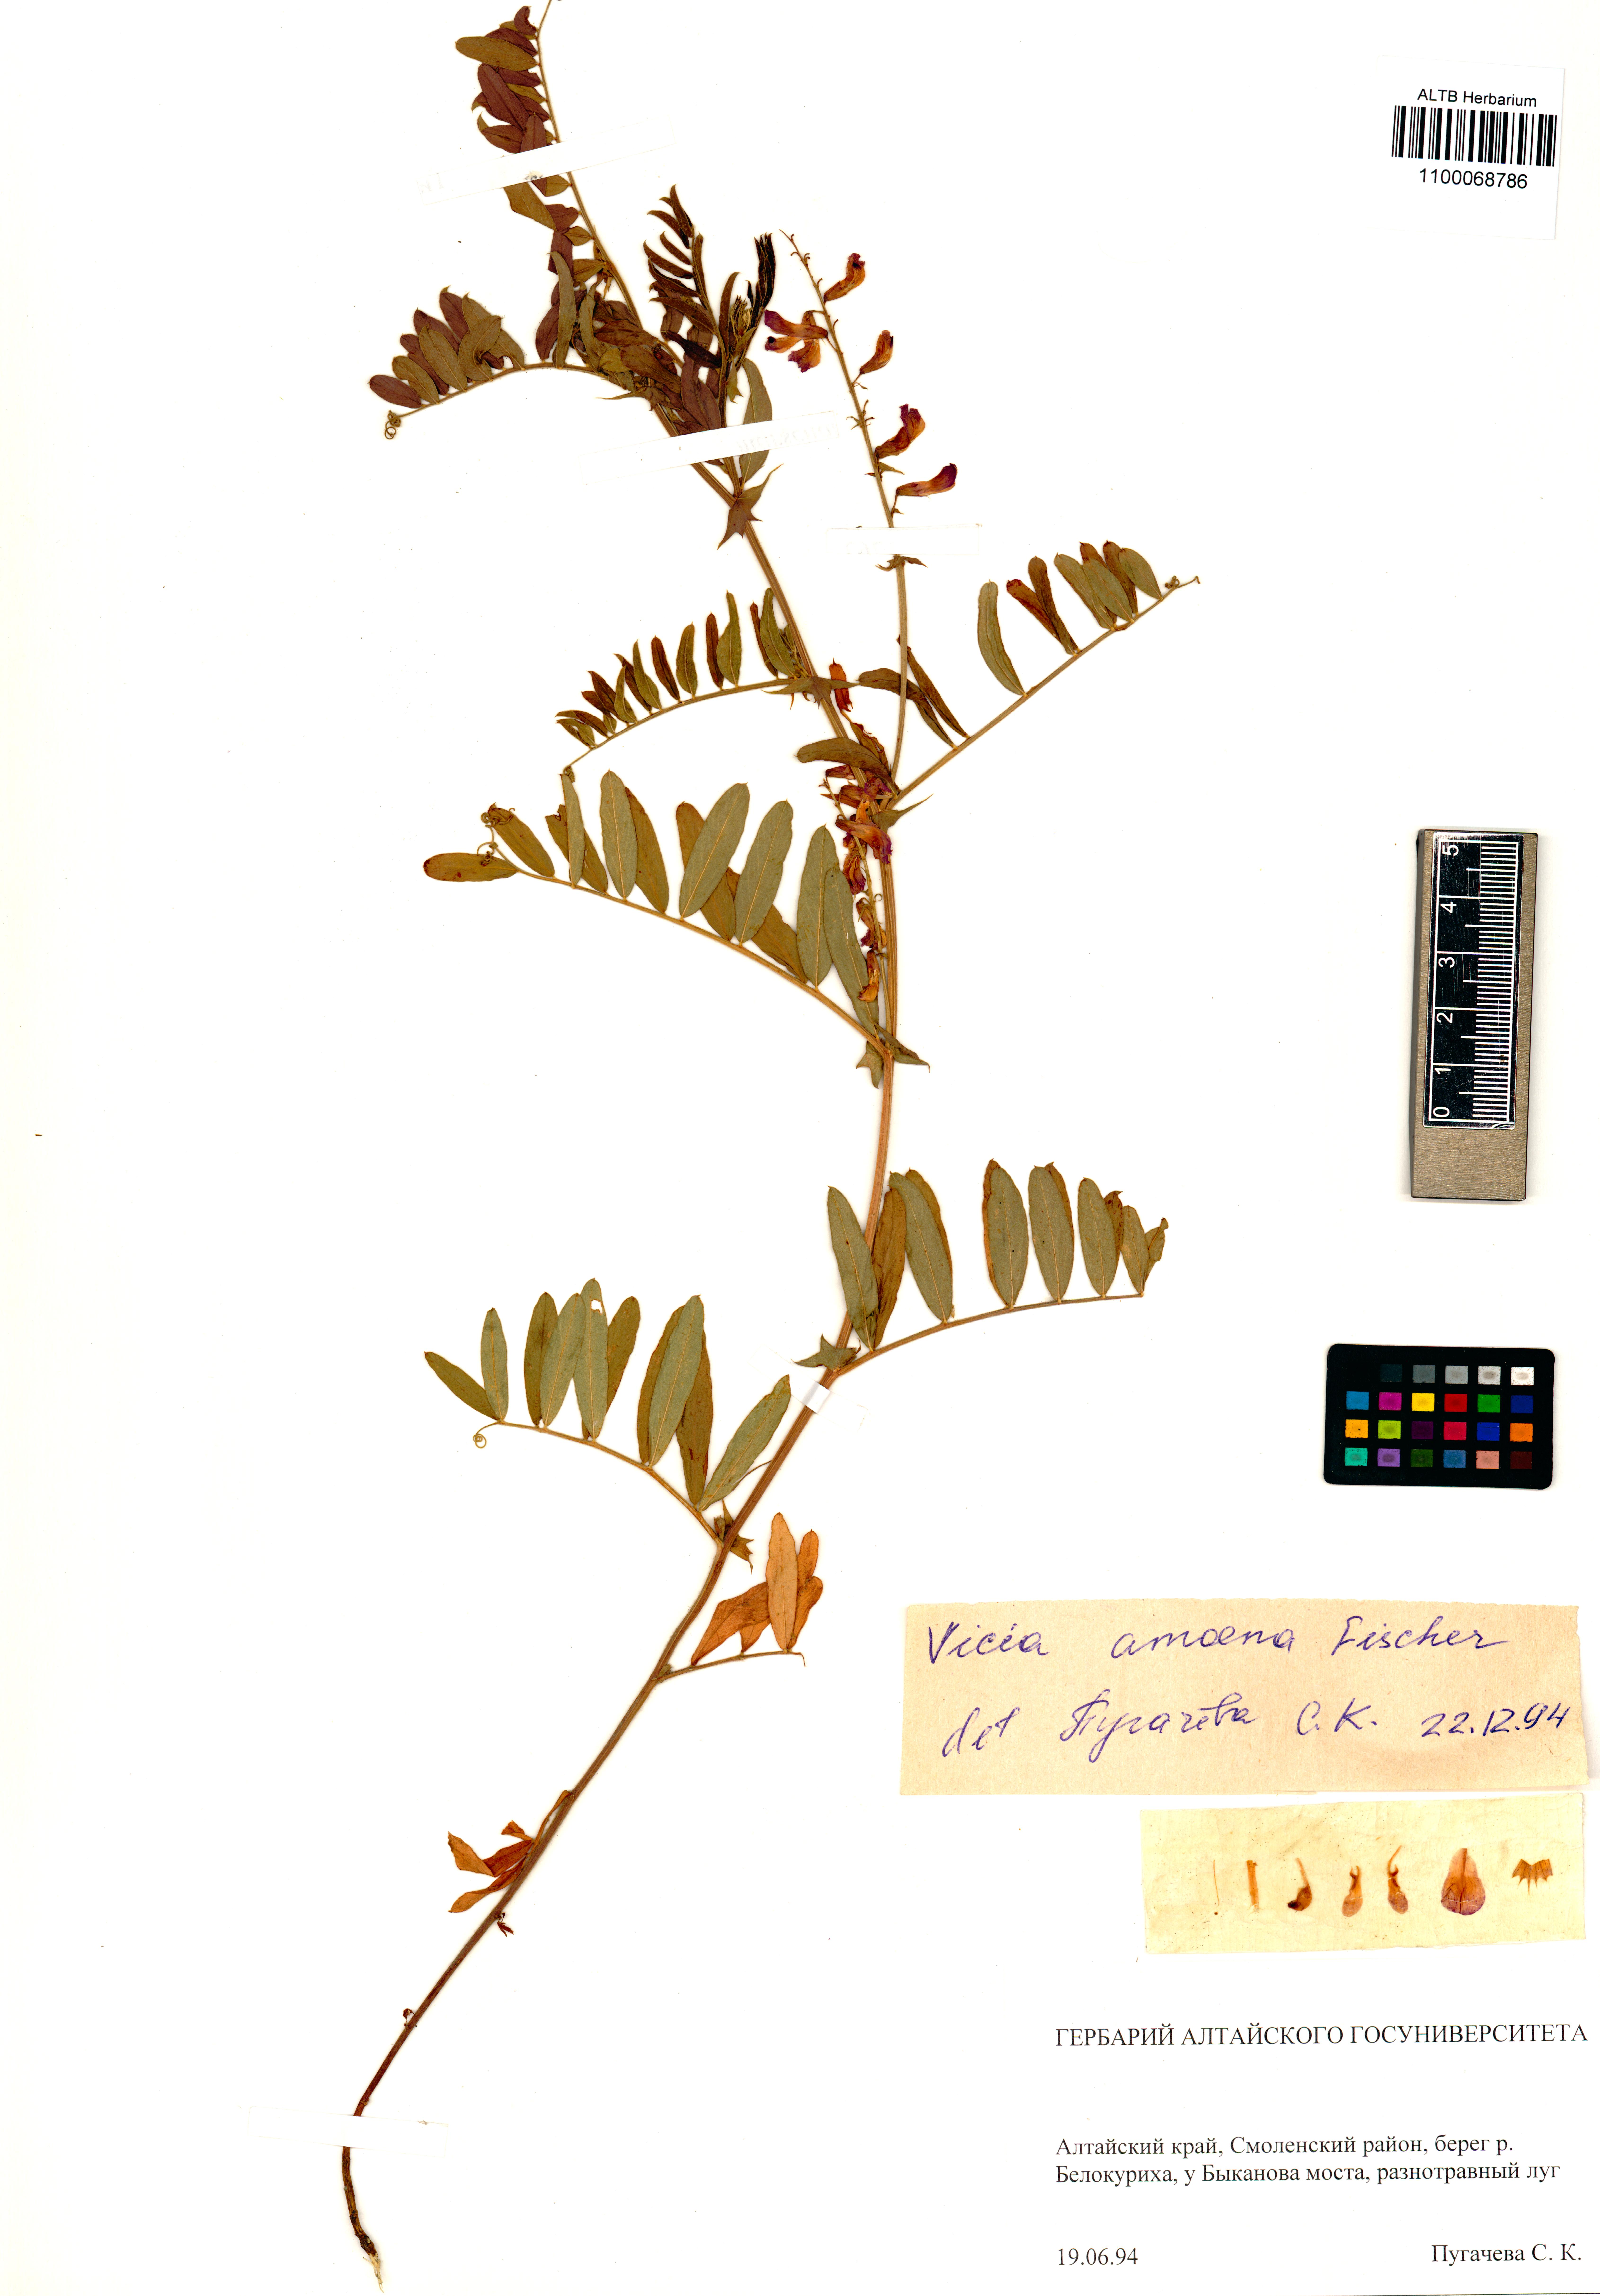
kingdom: Plantae
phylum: Tracheophyta
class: Magnoliopsida
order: Fabales
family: Fabaceae
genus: Vicia
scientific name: Vicia amoena
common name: Cheder ebs
